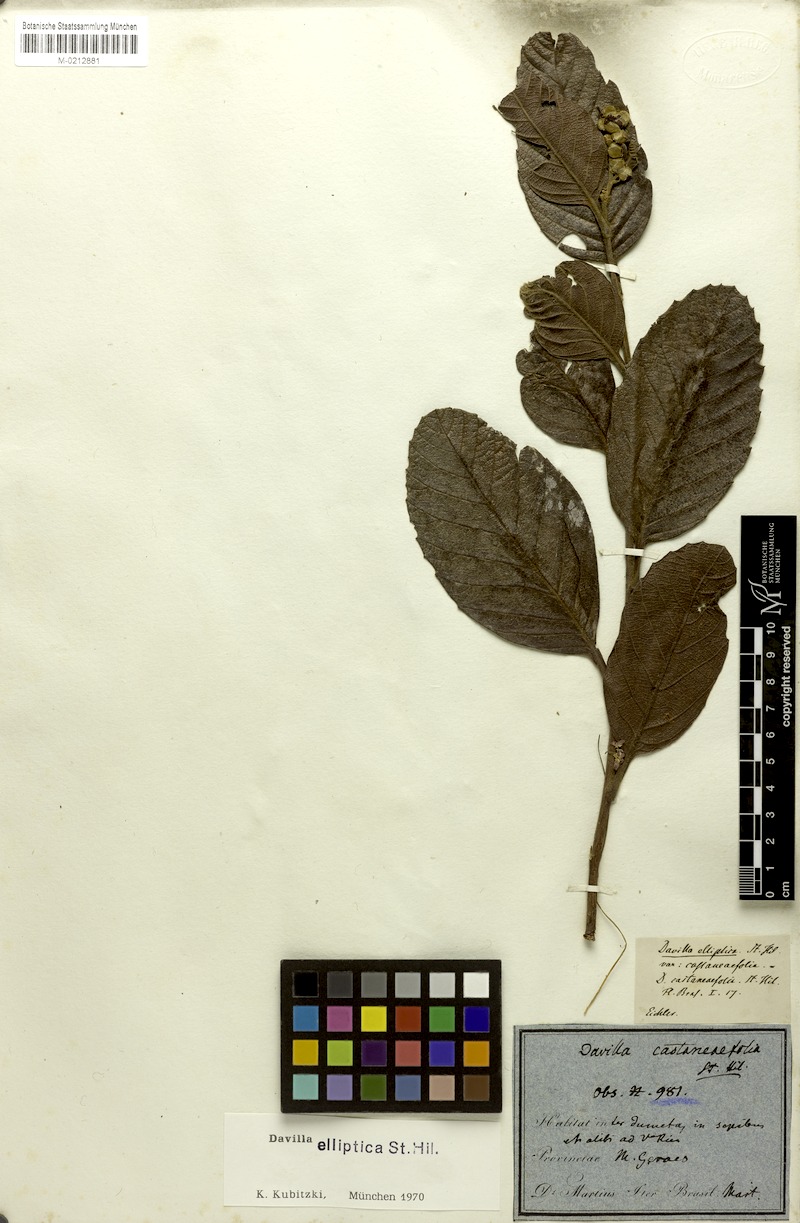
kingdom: Plantae
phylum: Tracheophyta
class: Magnoliopsida
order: Dilleniales
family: Dilleniaceae
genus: Davilla
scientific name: Davilla elliptica
